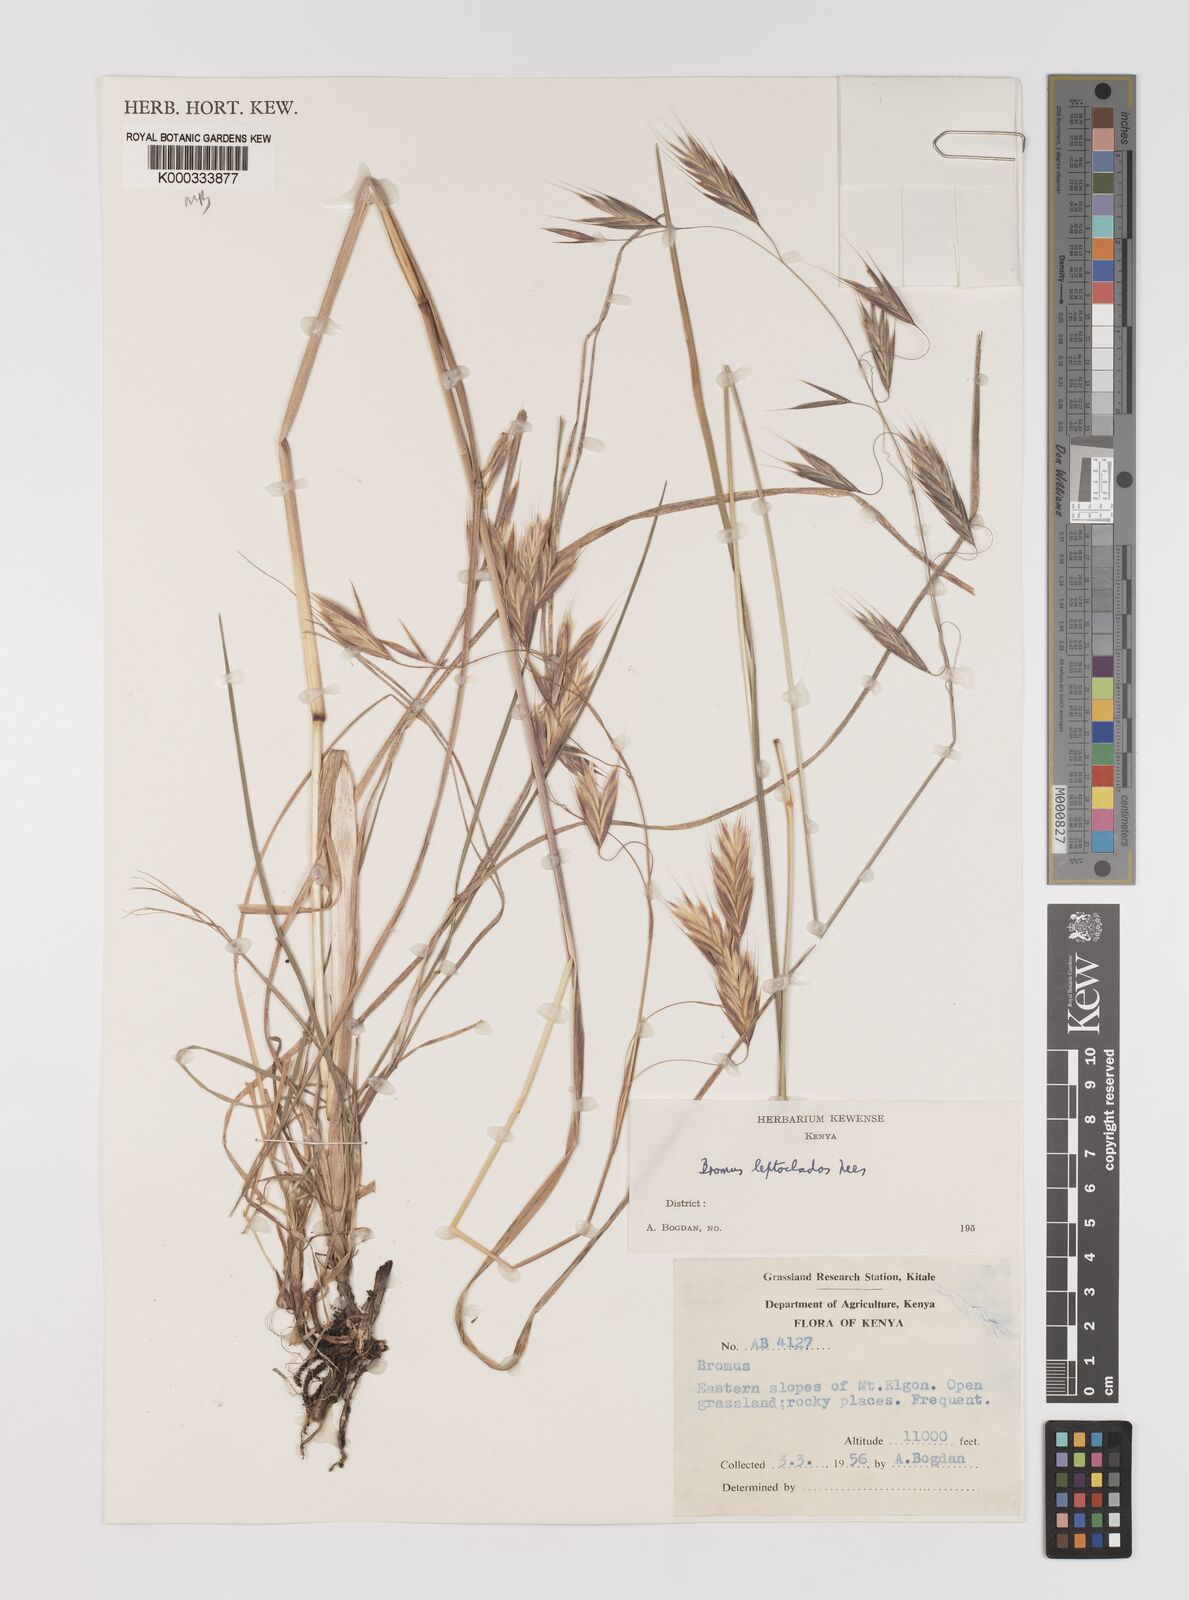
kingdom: Plantae
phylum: Tracheophyta
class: Liliopsida
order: Poales
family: Poaceae
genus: Bromus
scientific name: Bromus leptoclados
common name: Mountain bromegrass
